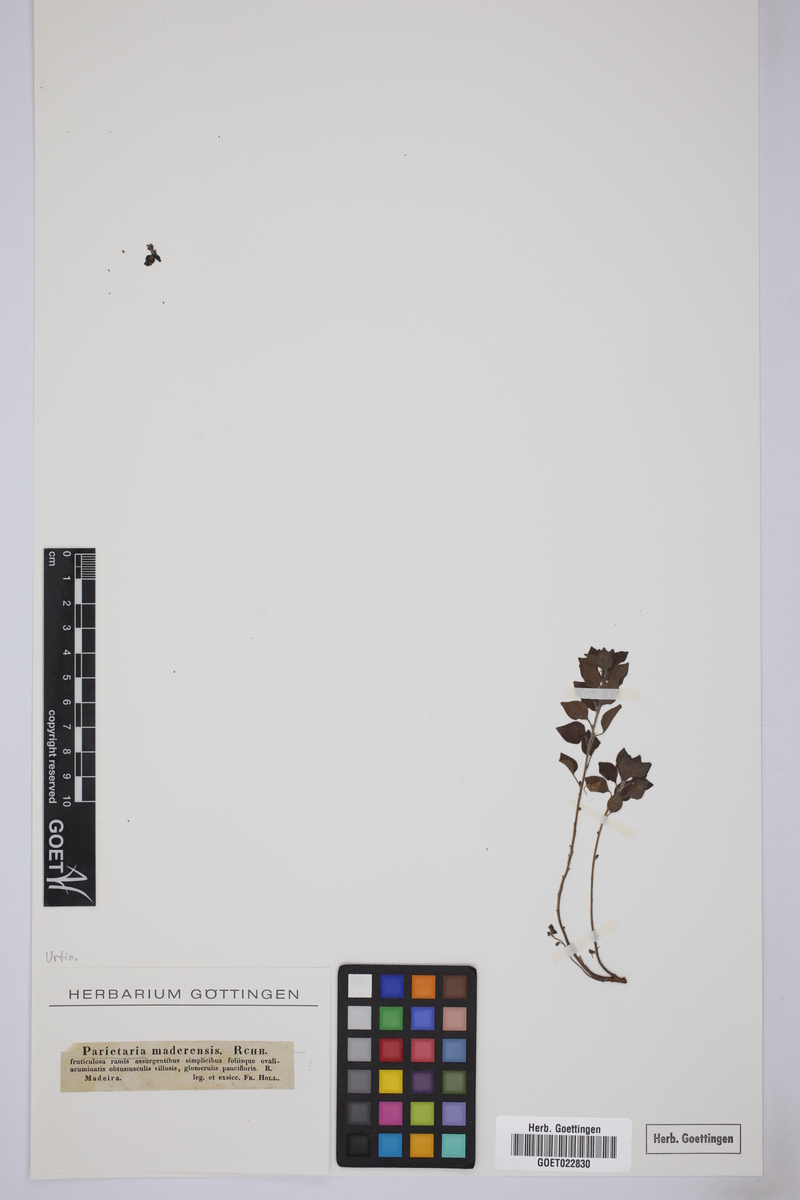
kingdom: Plantae
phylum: Tracheophyta
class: Magnoliopsida
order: Rosales
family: Urticaceae
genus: Parietaria
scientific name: Parietaria judaica
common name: Pellitory-of-the-wall
